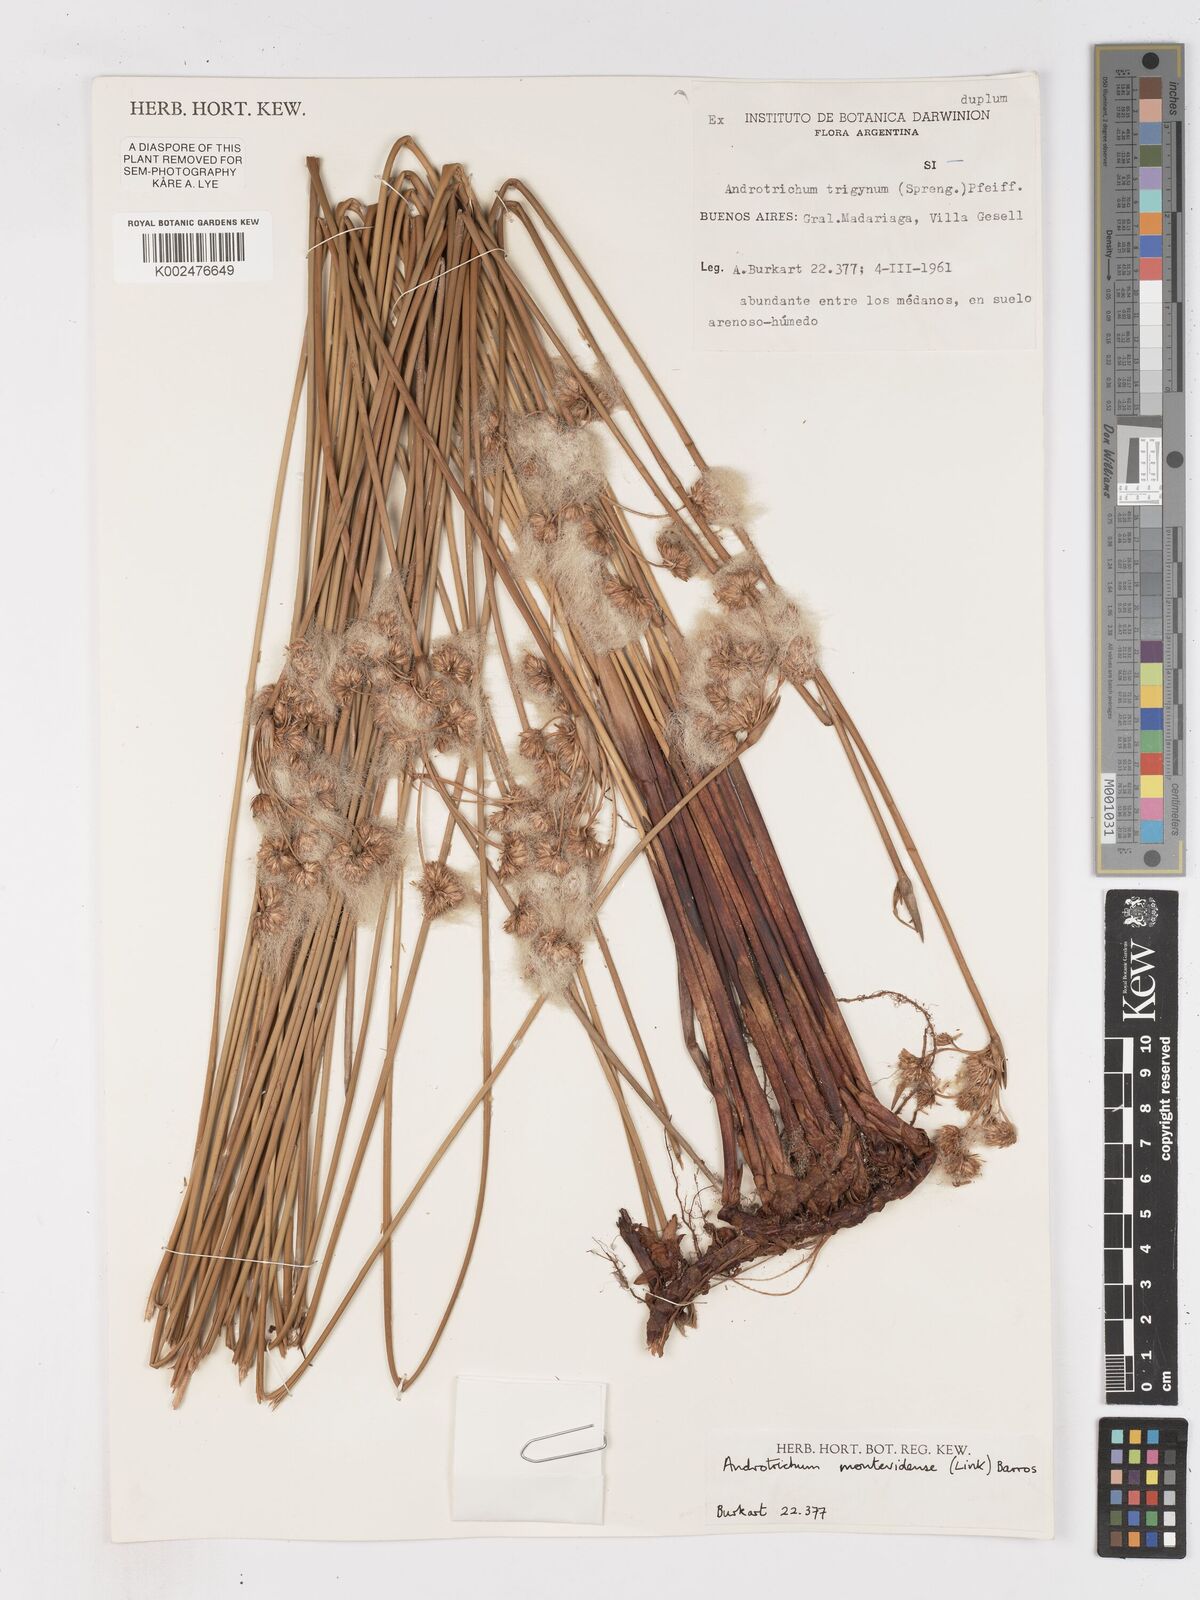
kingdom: Plantae
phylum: Tracheophyta
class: Liliopsida
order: Poales
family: Cyperaceae
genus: Cyperus
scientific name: Cyperus trigynus
